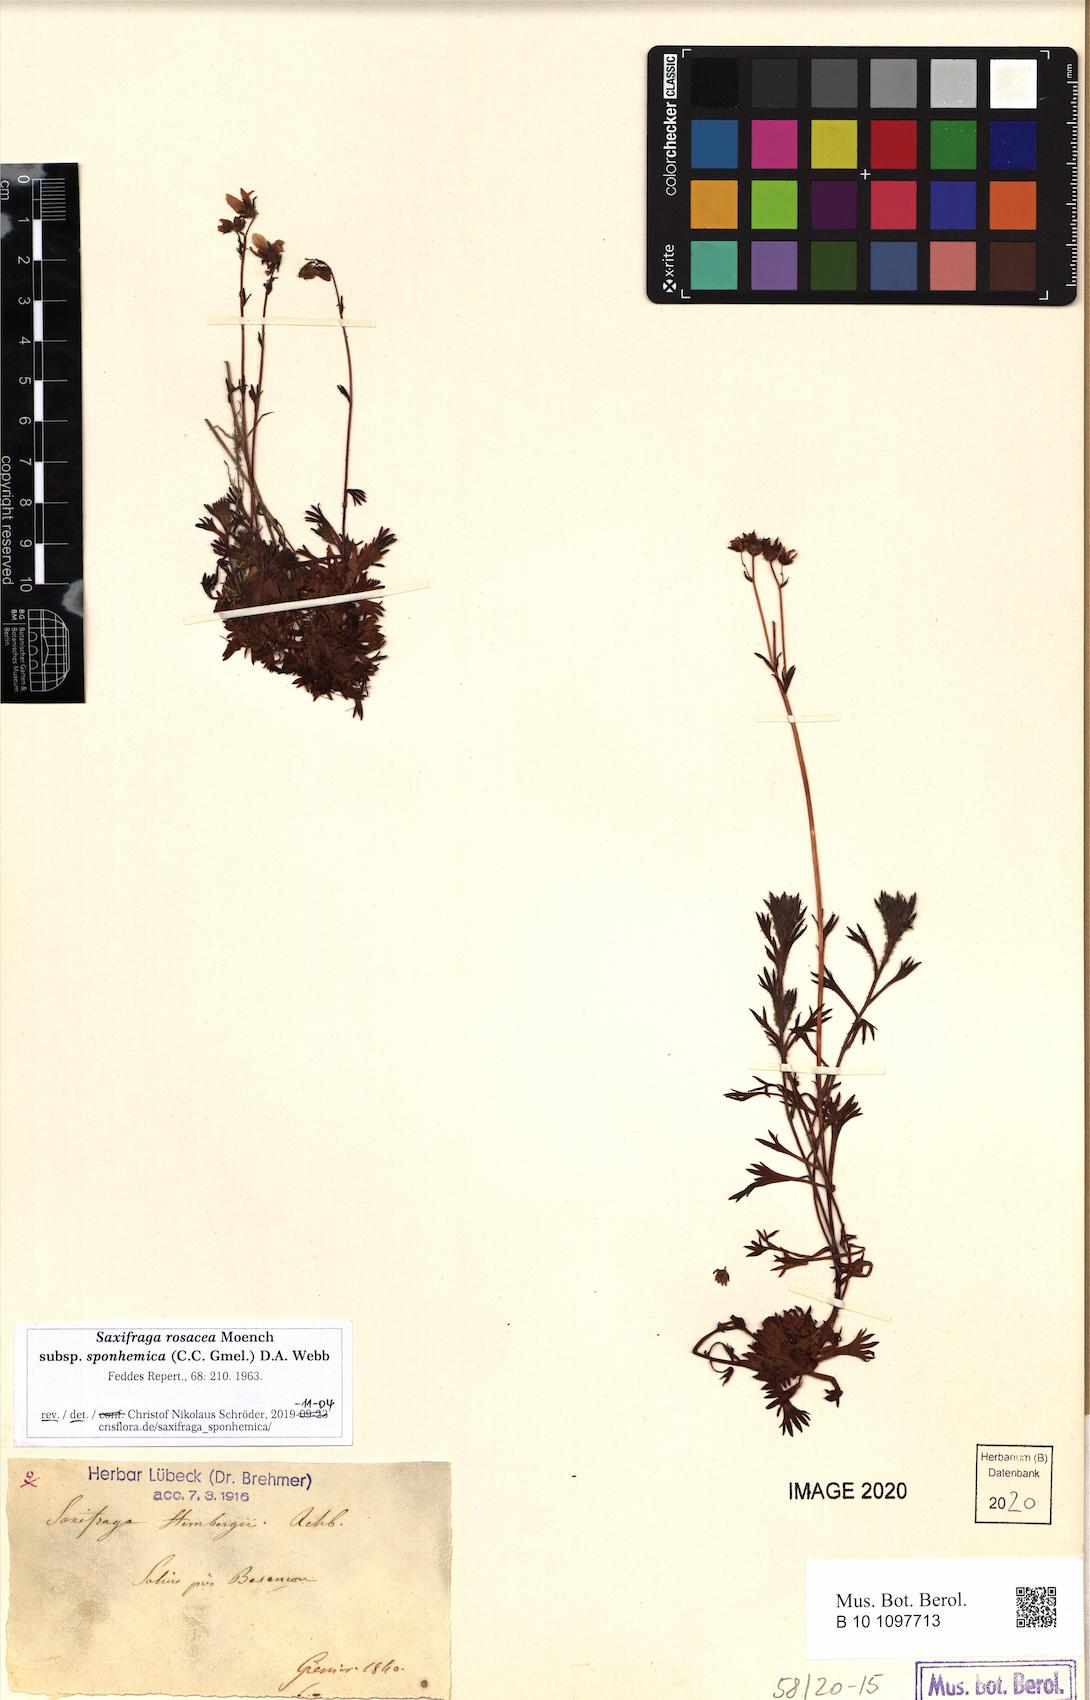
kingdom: Plantae
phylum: Tracheophyta
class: Magnoliopsida
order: Saxifragales
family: Saxifragaceae
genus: Saxifraga
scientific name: Saxifraga rosacea
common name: Irish saxifrage
